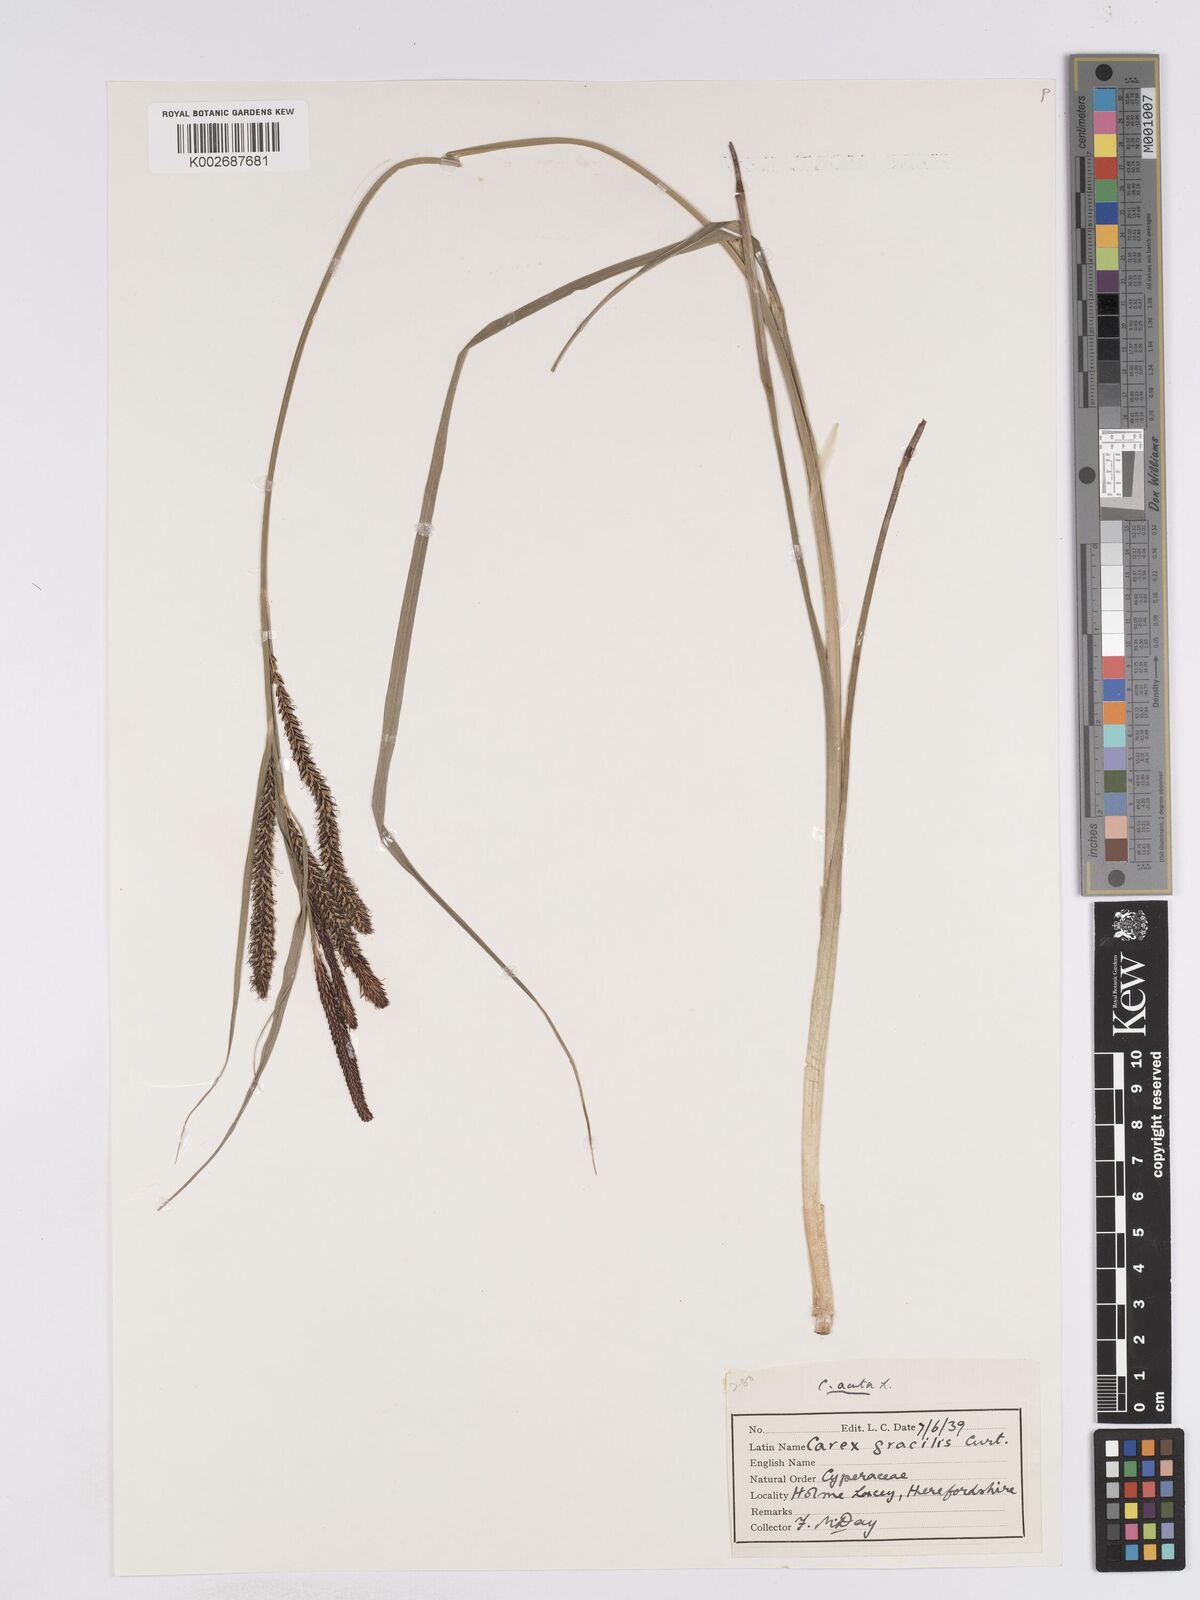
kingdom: Plantae
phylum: Tracheophyta
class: Liliopsida
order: Poales
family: Cyperaceae
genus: Carex
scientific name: Carex acuta
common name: Slender tufted-sedge
